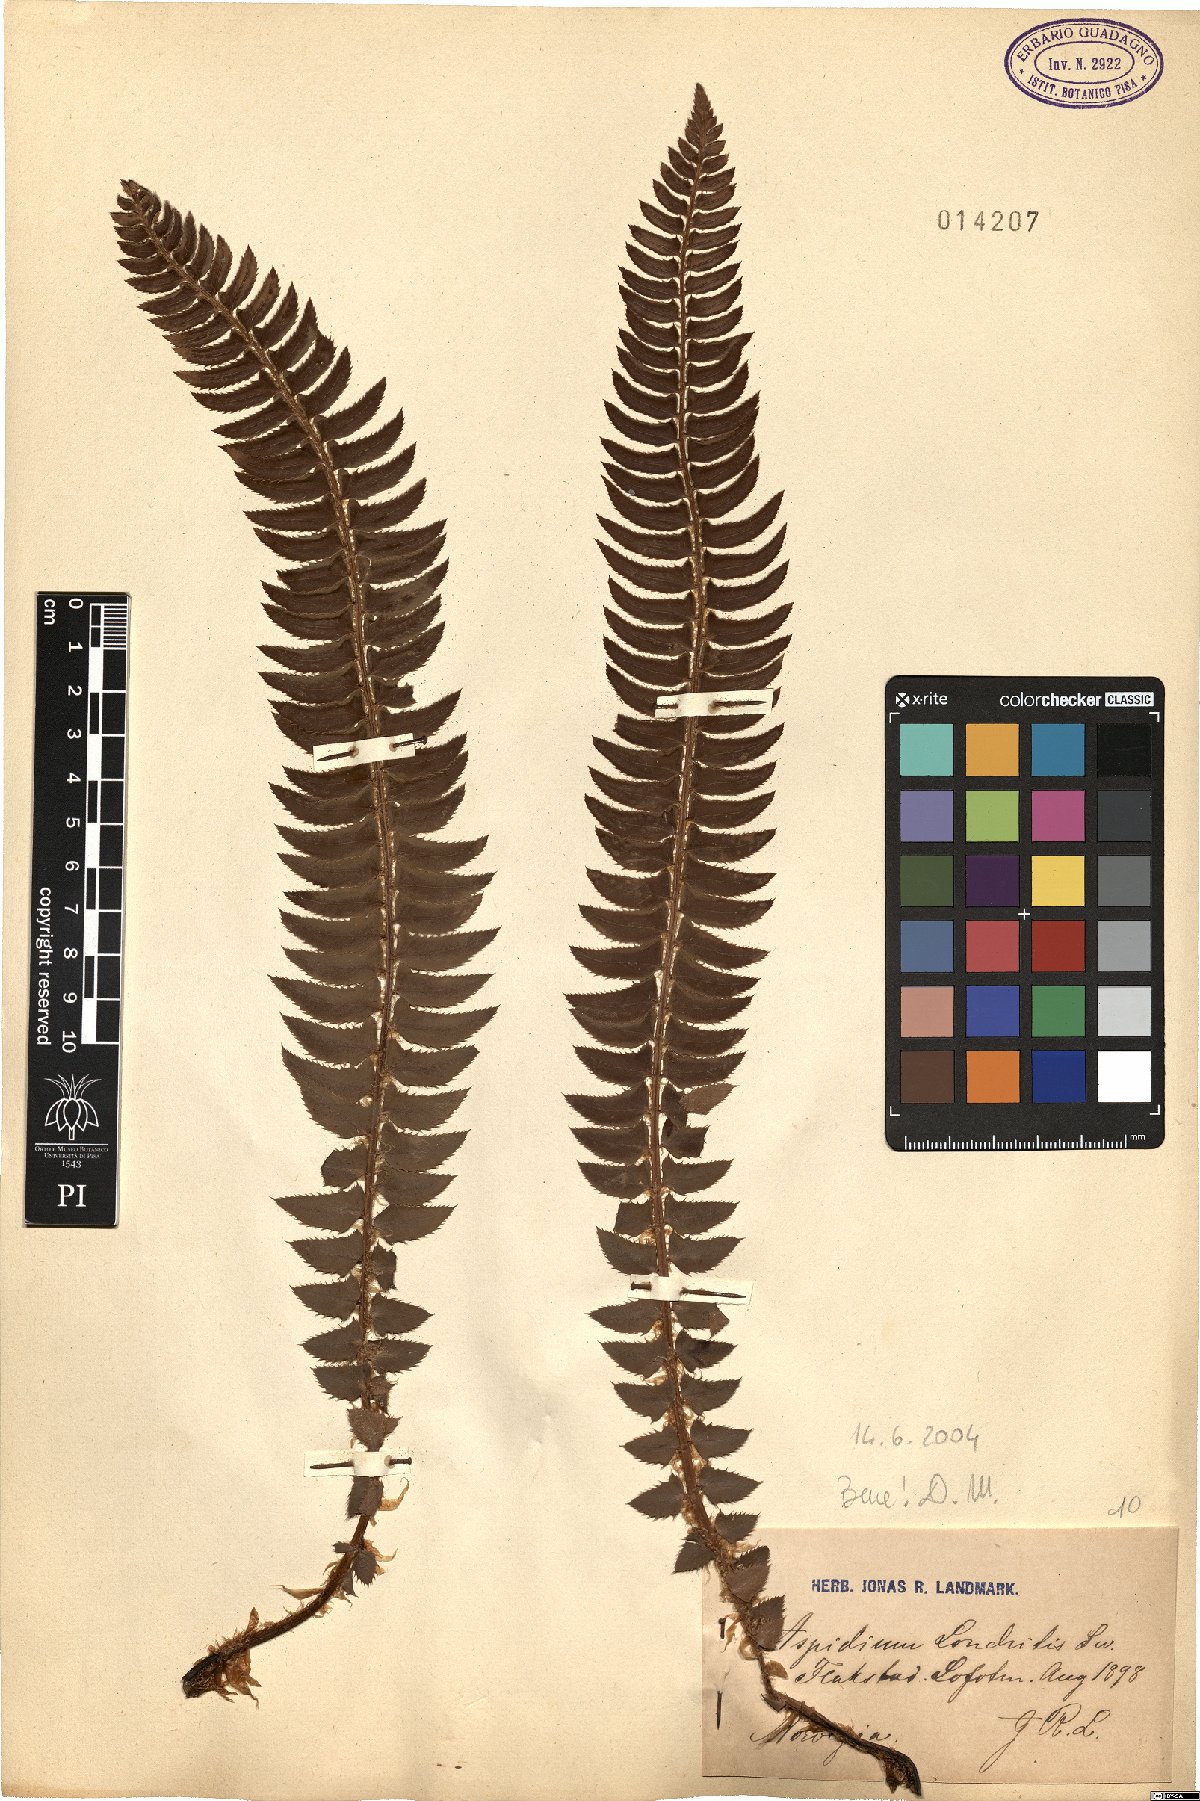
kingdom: Plantae
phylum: Tracheophyta
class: Polypodiopsida
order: Polypodiales
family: Dryopteridaceae
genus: Polystichum
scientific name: Polystichum lonchitis
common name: Holly fern
